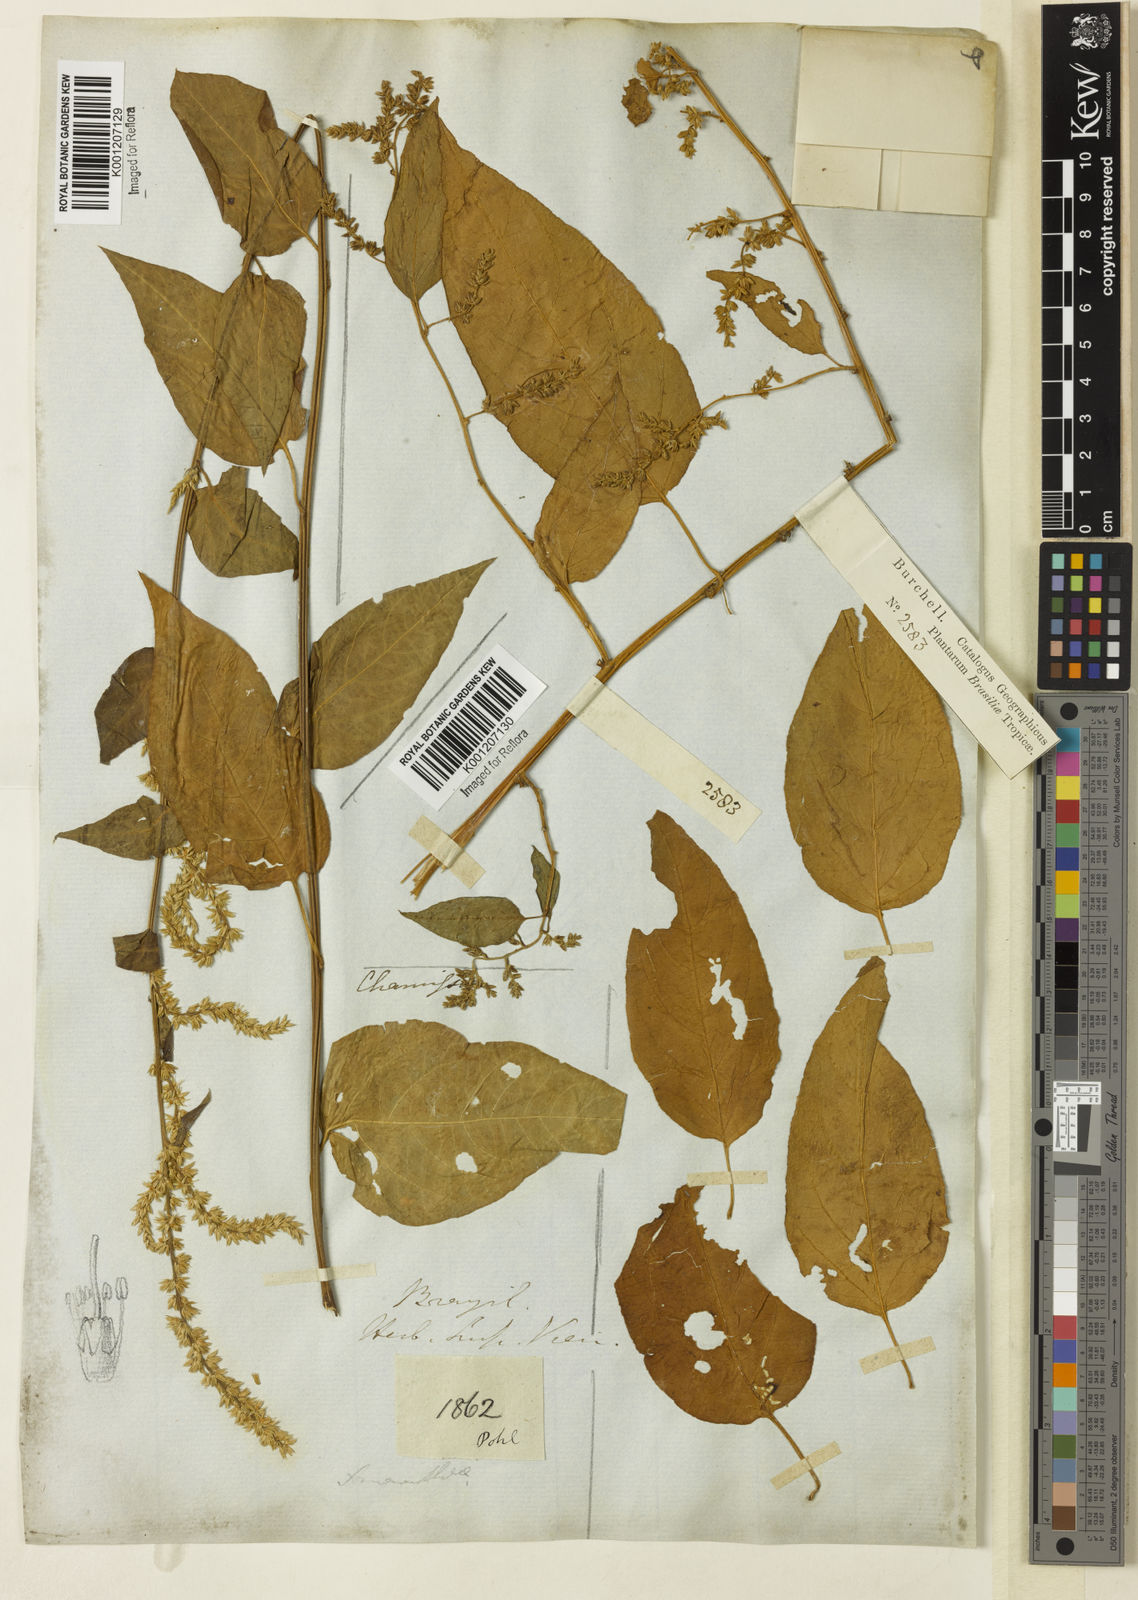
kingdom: Plantae
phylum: Tracheophyta
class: Magnoliopsida
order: Caryophyllales
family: Amaranthaceae
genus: Chamissoa
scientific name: Chamissoa altissima
